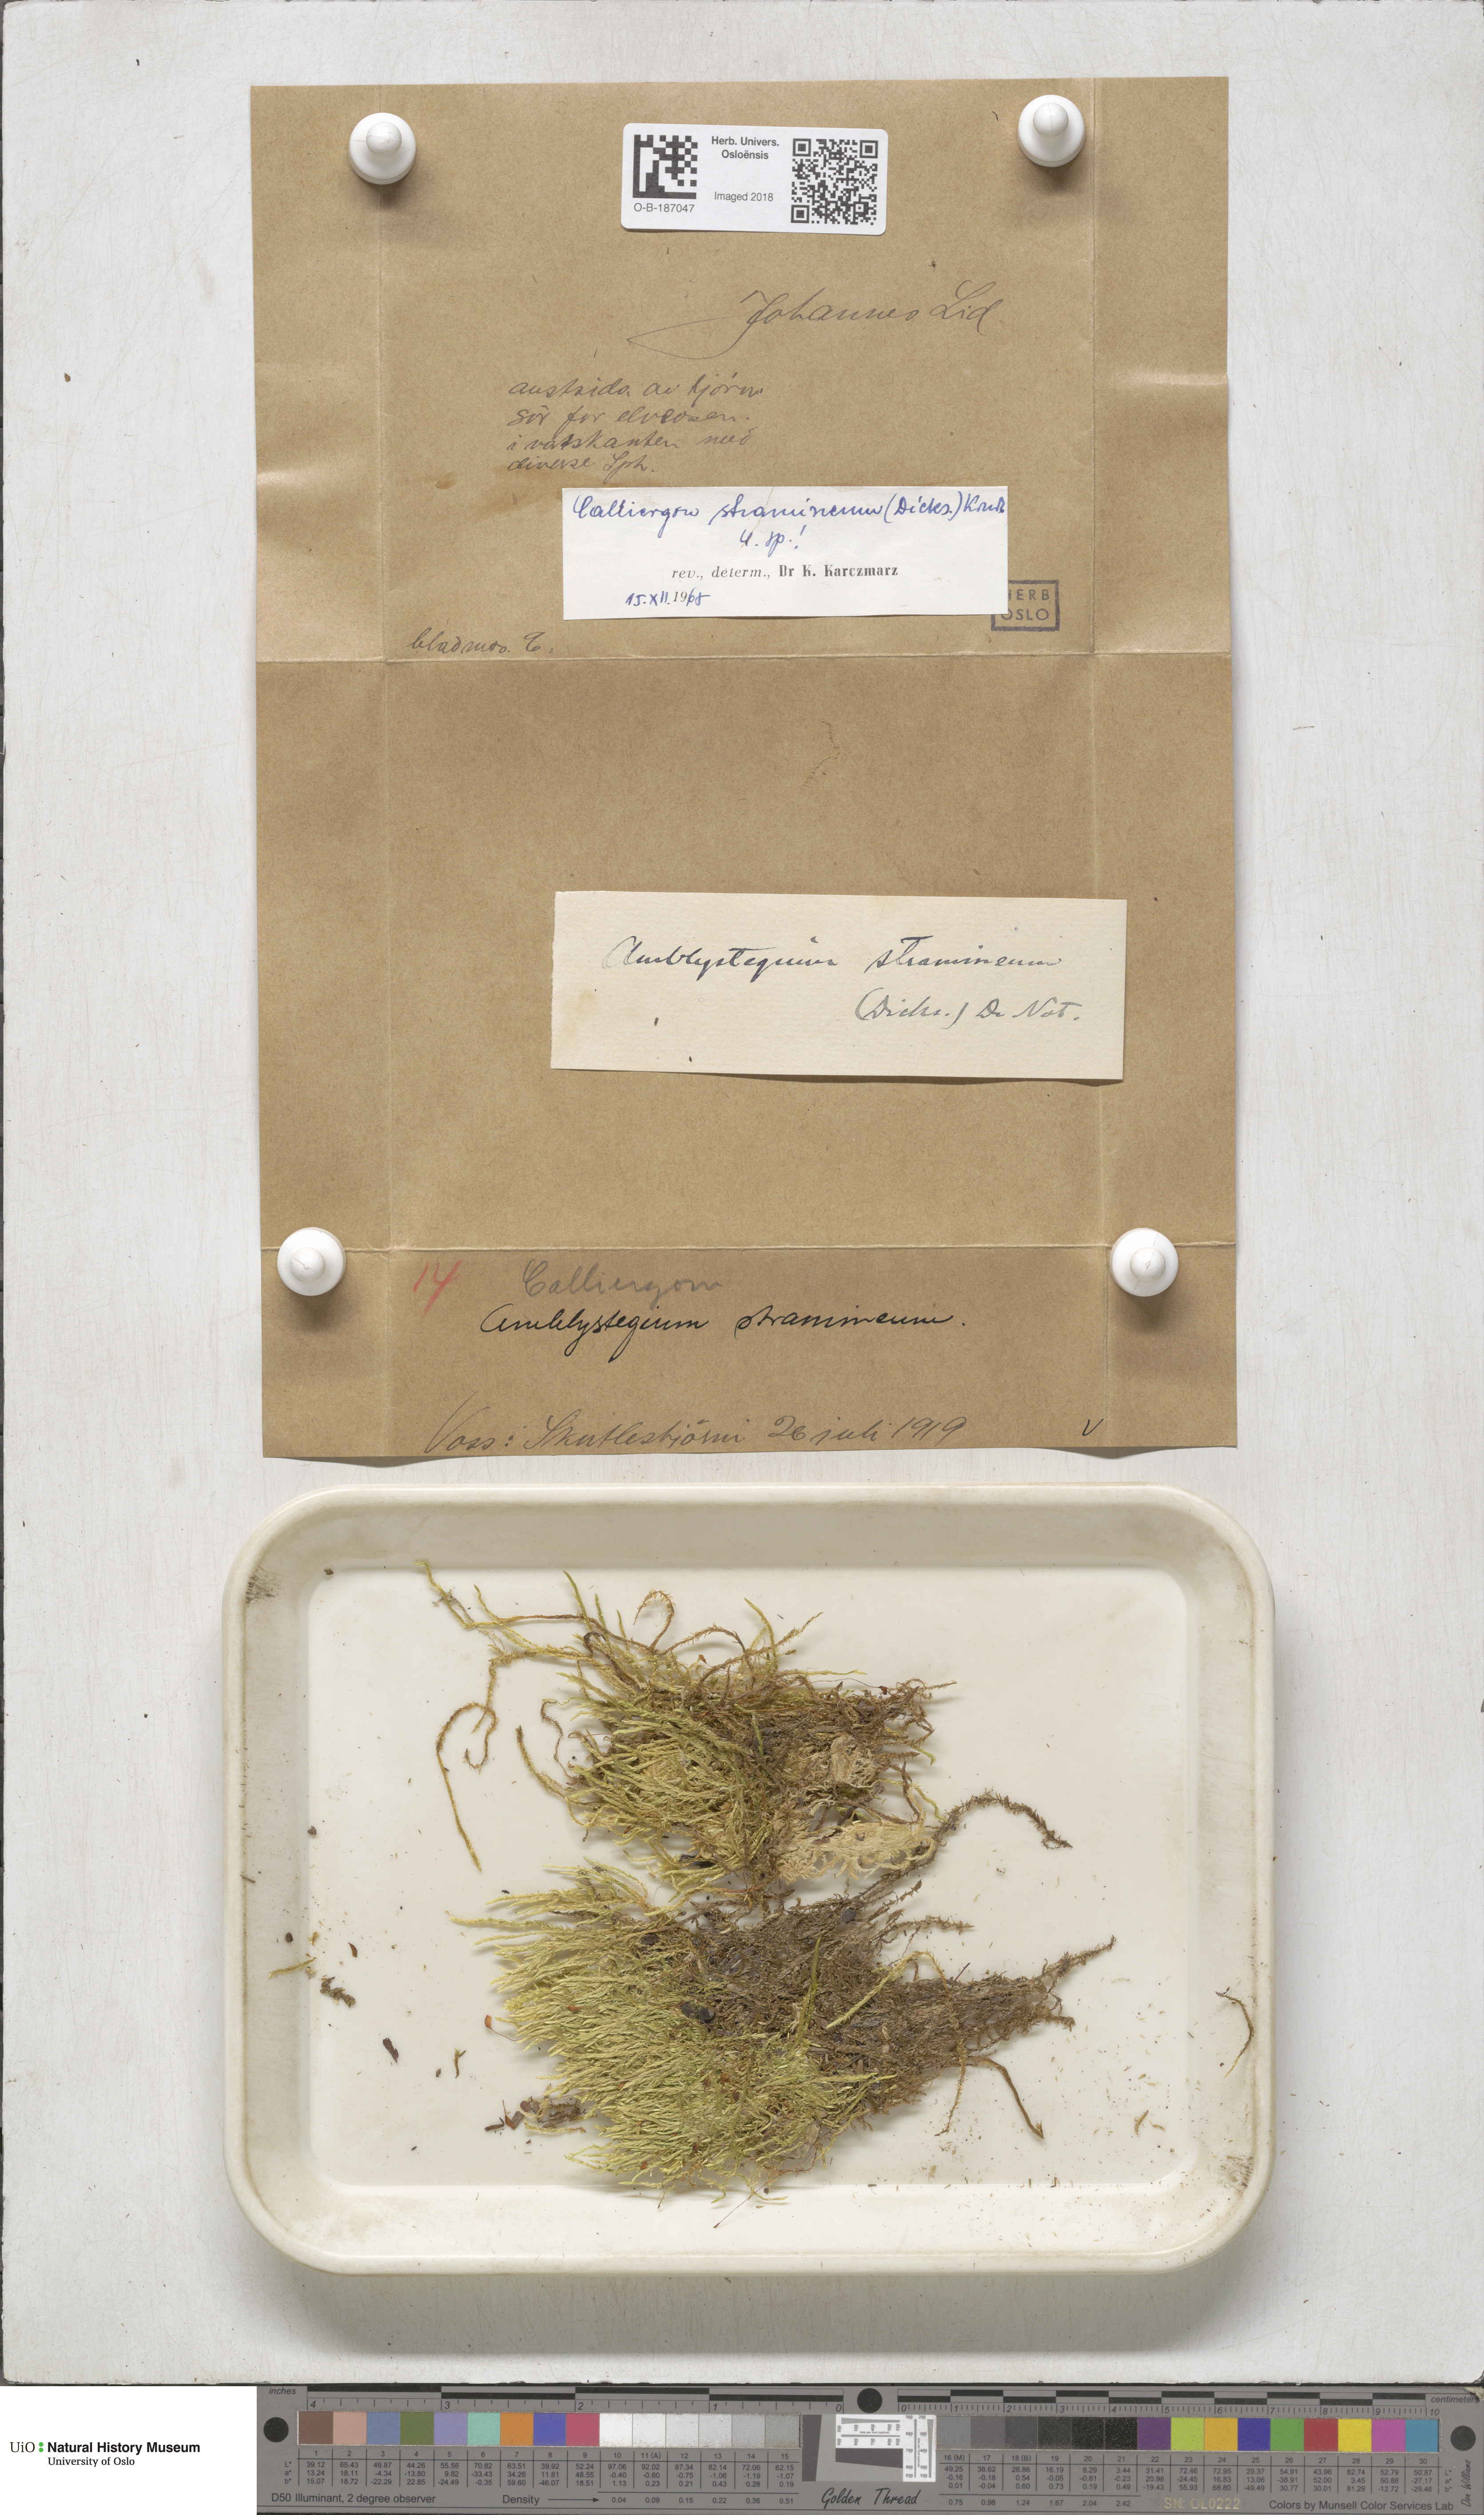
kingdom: Plantae
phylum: Bryophyta
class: Bryopsida
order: Hypnales
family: Calliergonaceae
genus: Straminergon
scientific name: Straminergon stramineum
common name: Straw moss
